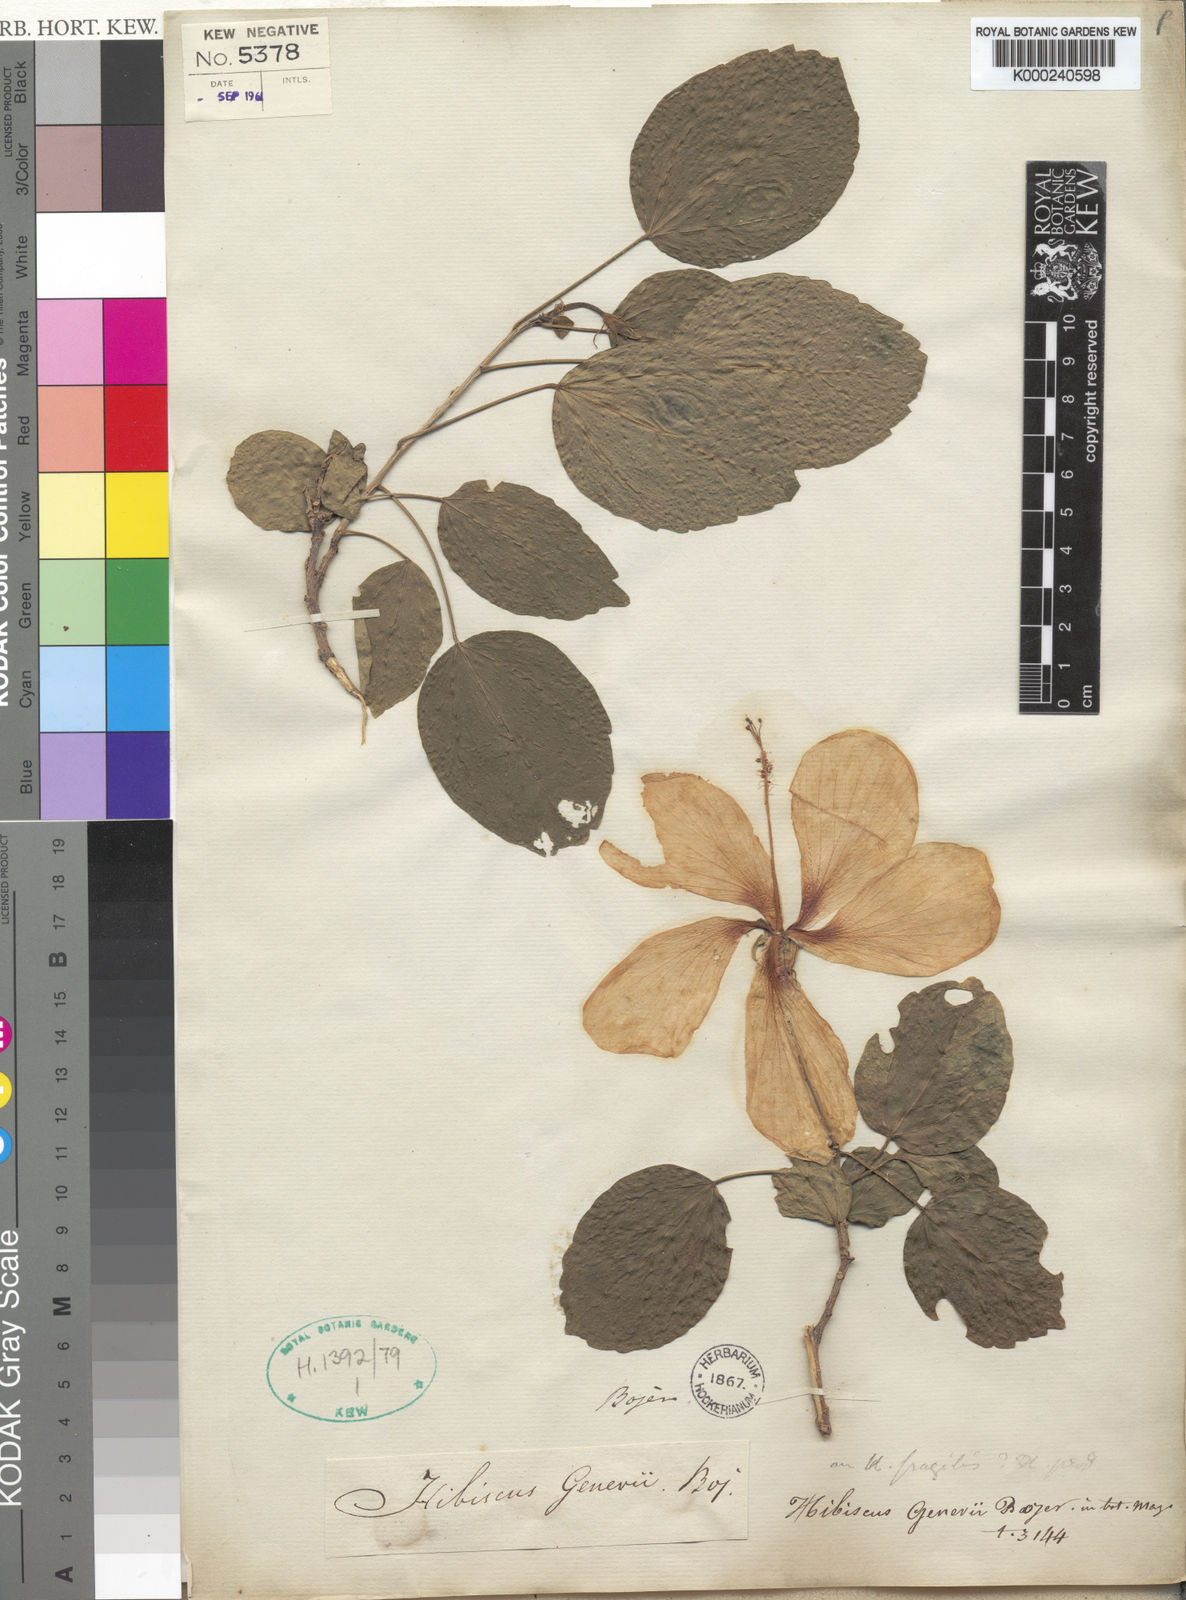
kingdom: Plantae
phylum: Tracheophyta
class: Magnoliopsida
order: Malvales
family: Malvaceae
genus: Hibiscus
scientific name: Hibiscus fragilis
